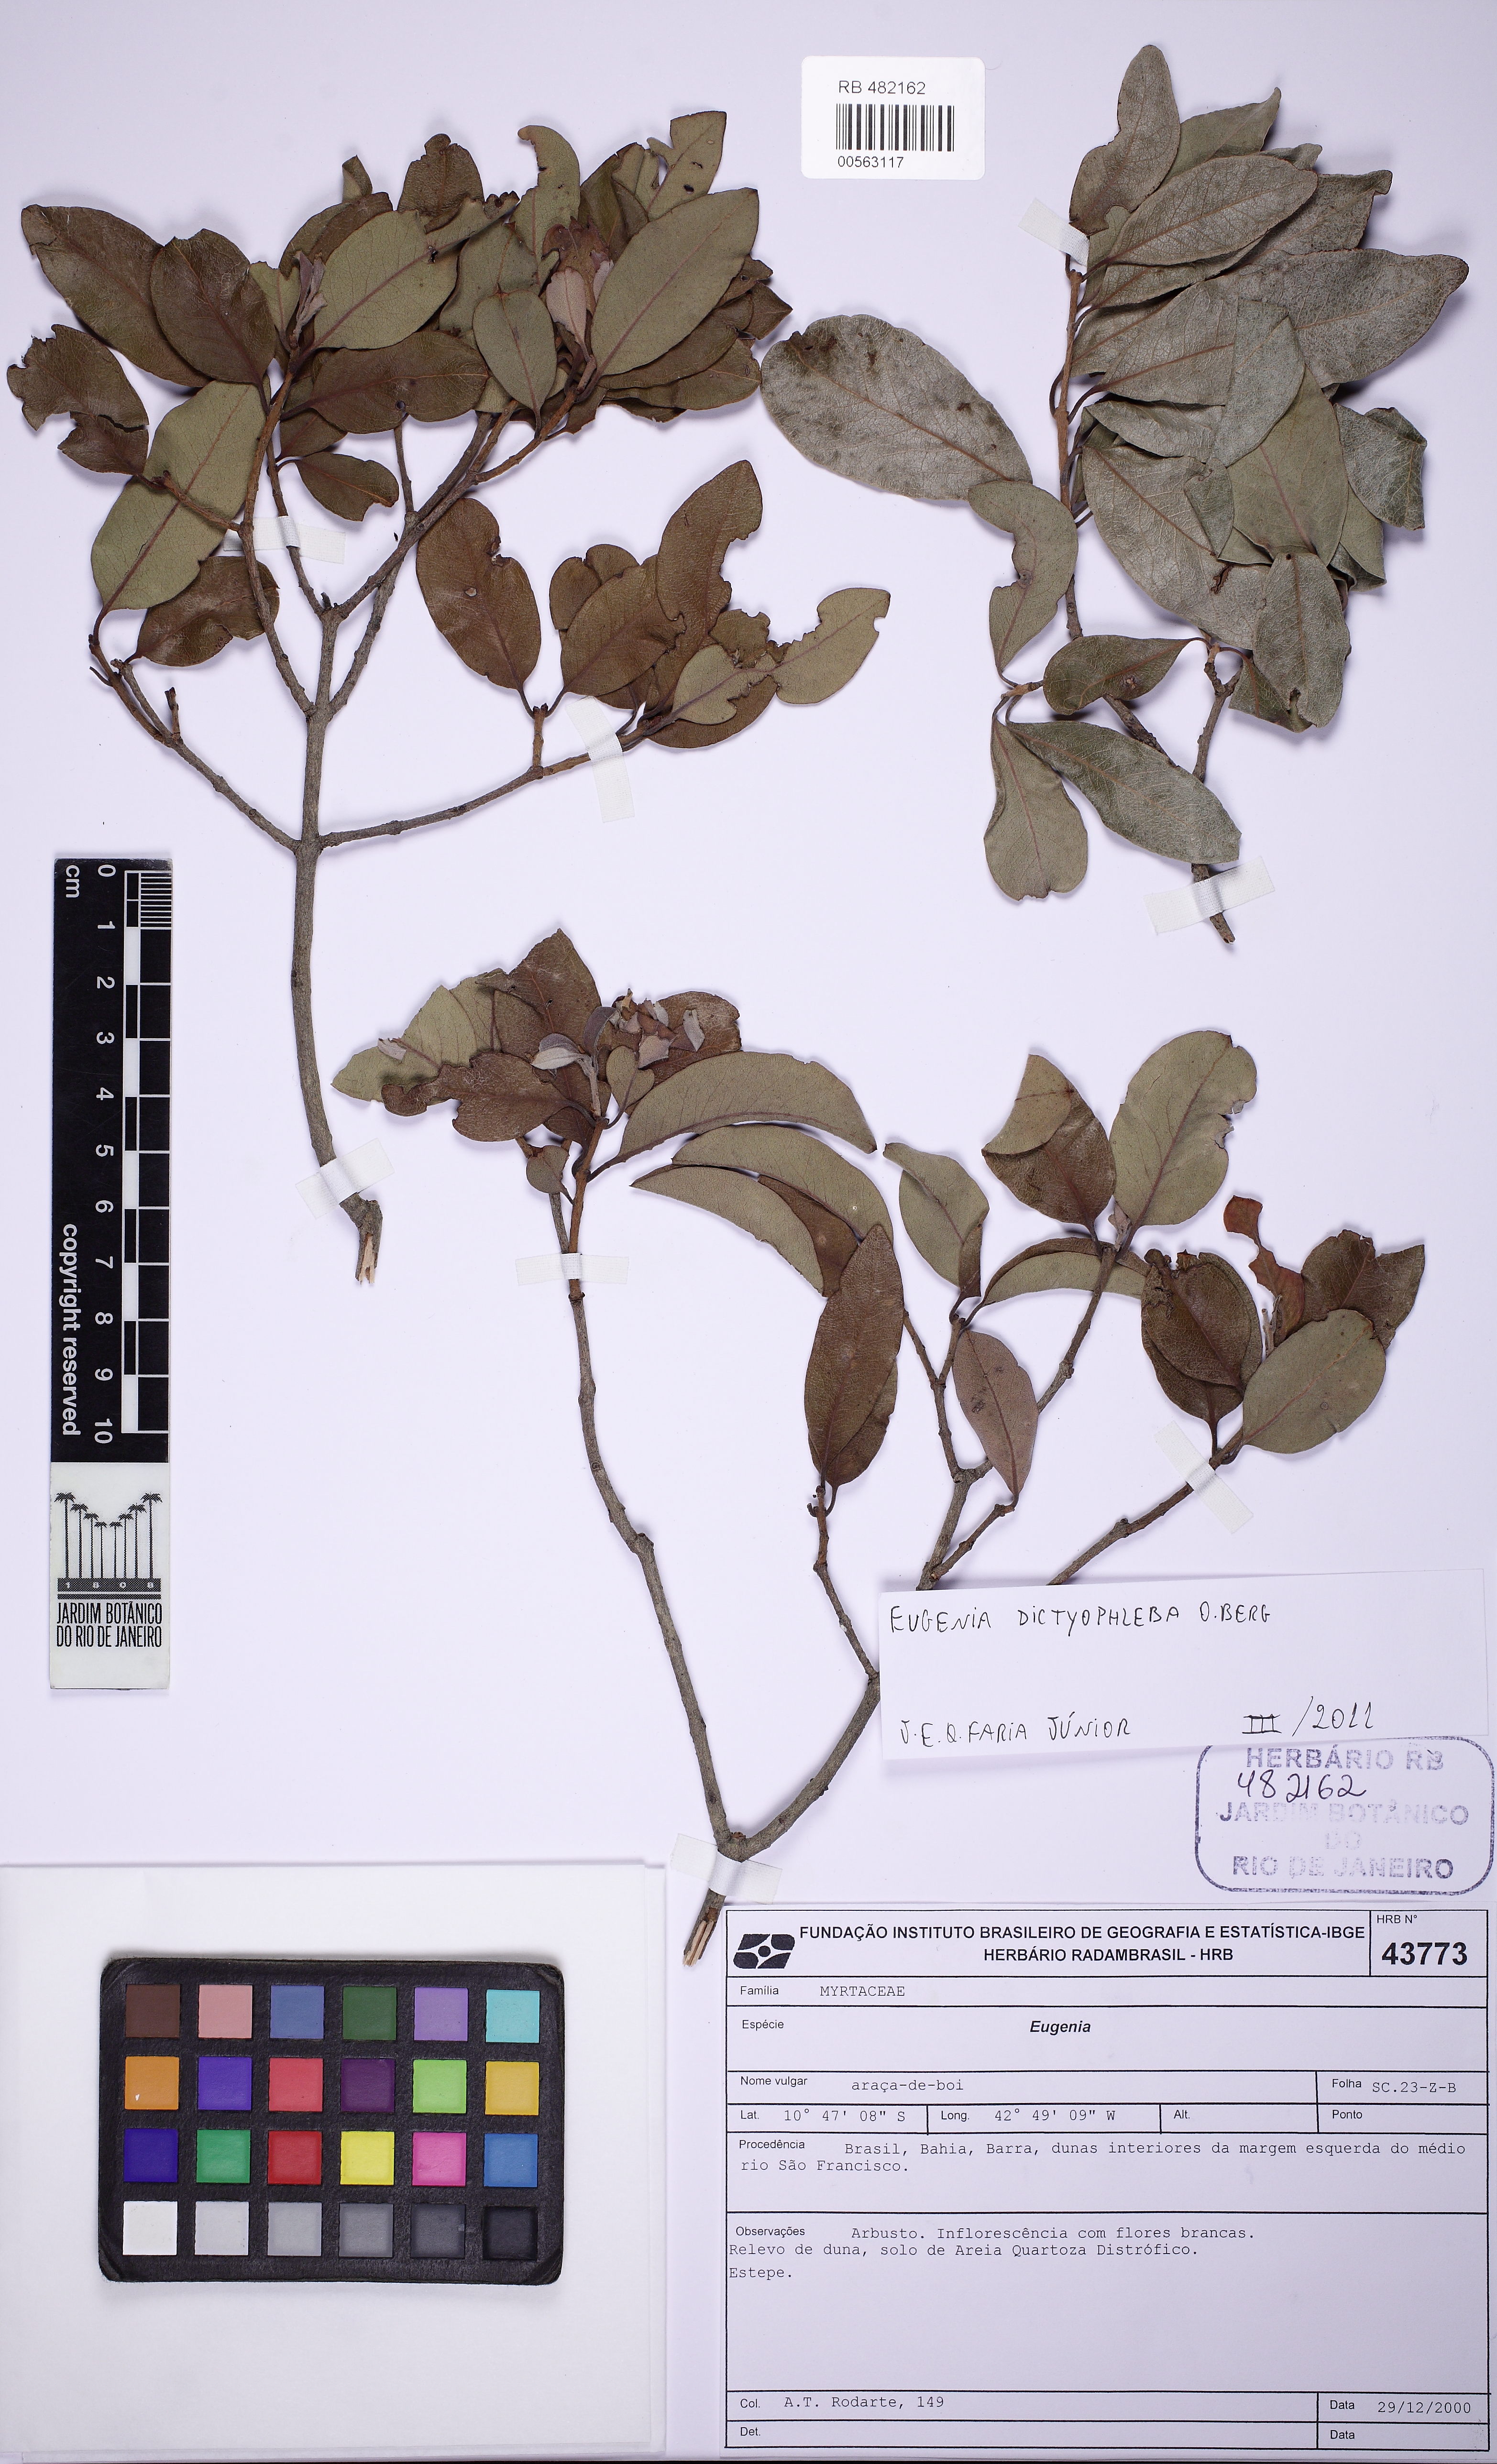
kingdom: Plantae
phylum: Tracheophyta
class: Magnoliopsida
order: Myrtales
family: Myrtaceae
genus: Eugenia
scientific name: Eugenia dictyophleba
